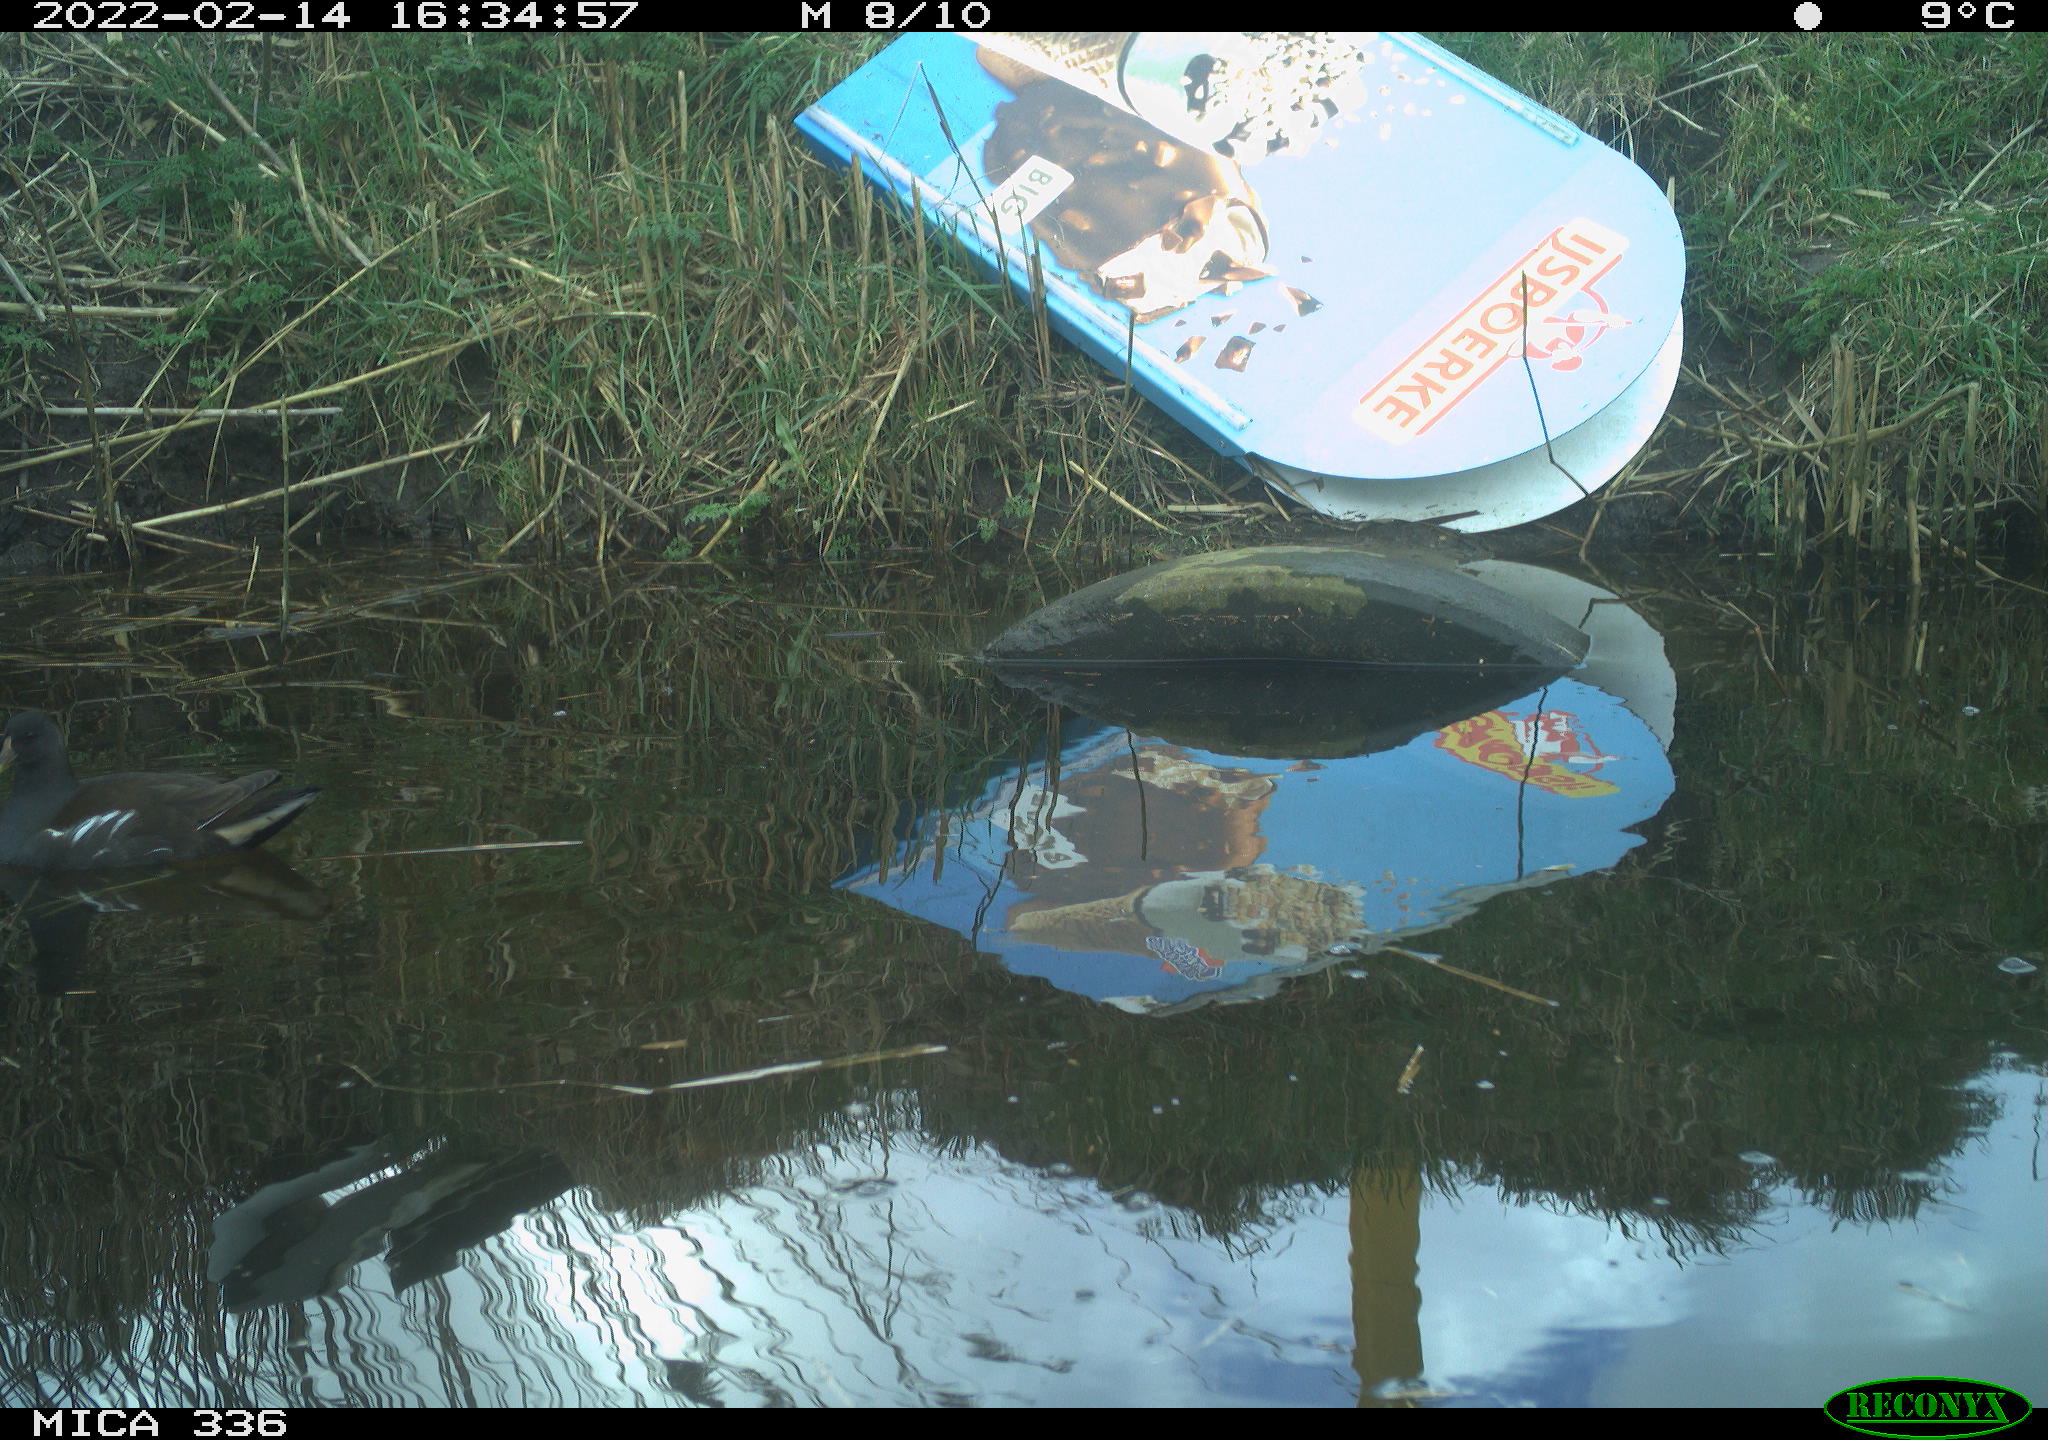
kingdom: Animalia
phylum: Chordata
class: Aves
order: Gruiformes
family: Rallidae
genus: Gallinula
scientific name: Gallinula chloropus
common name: Common moorhen
